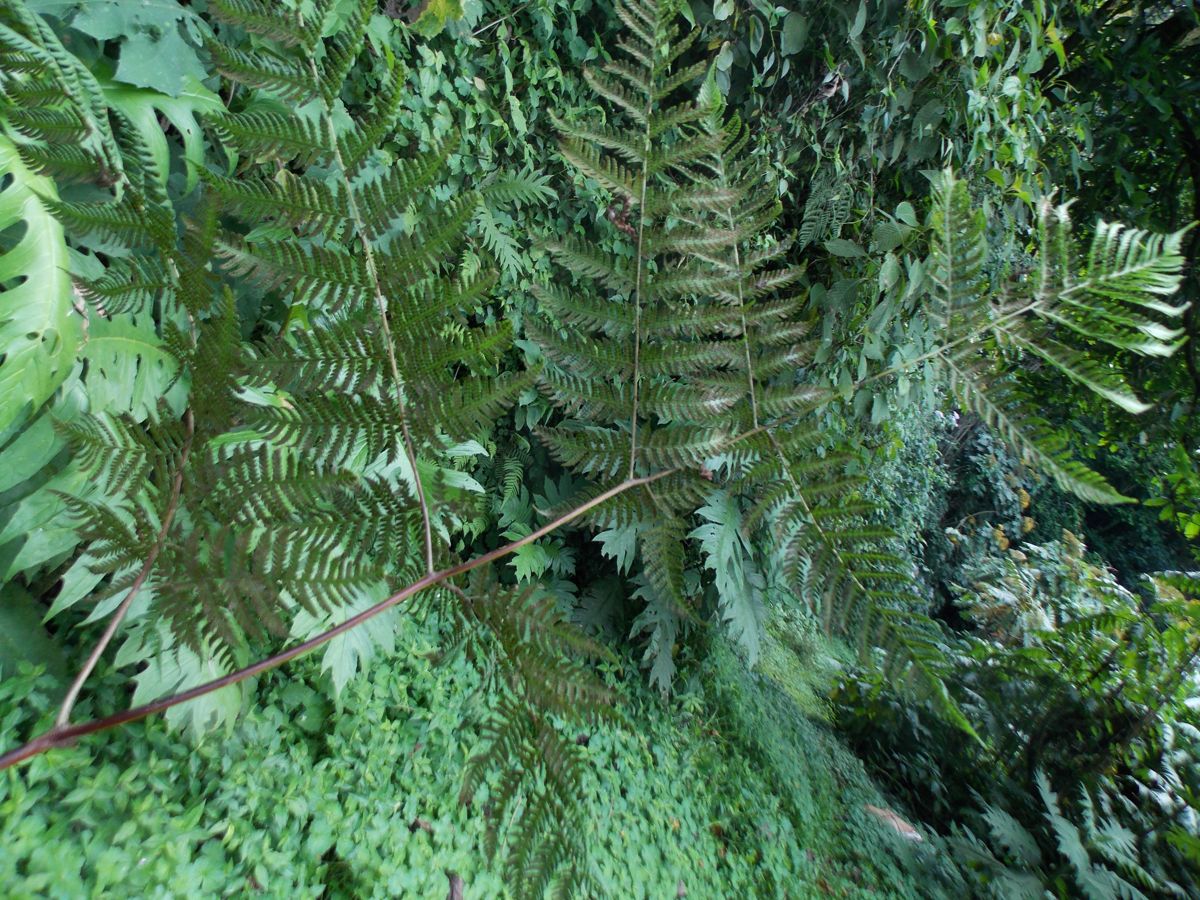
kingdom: Plantae
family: Pteridophyta
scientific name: Pteridophyta
